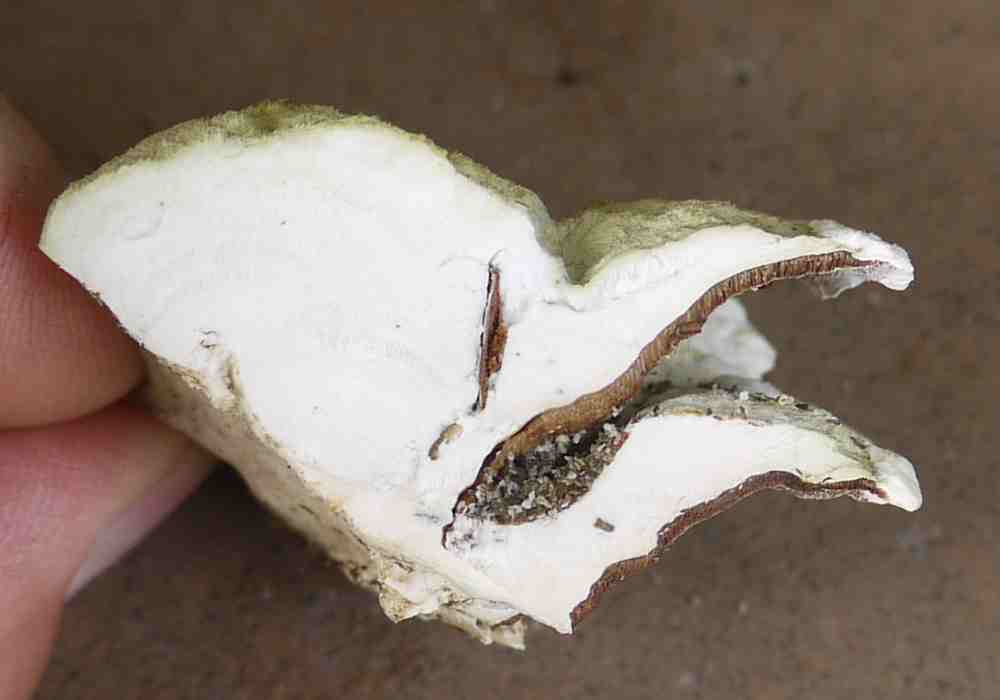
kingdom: Fungi
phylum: Basidiomycota
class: Agaricomycetes
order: Polyporales
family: Polyporaceae
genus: Trametes
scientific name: Trametes hirsuta
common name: håret læderporesvamp
